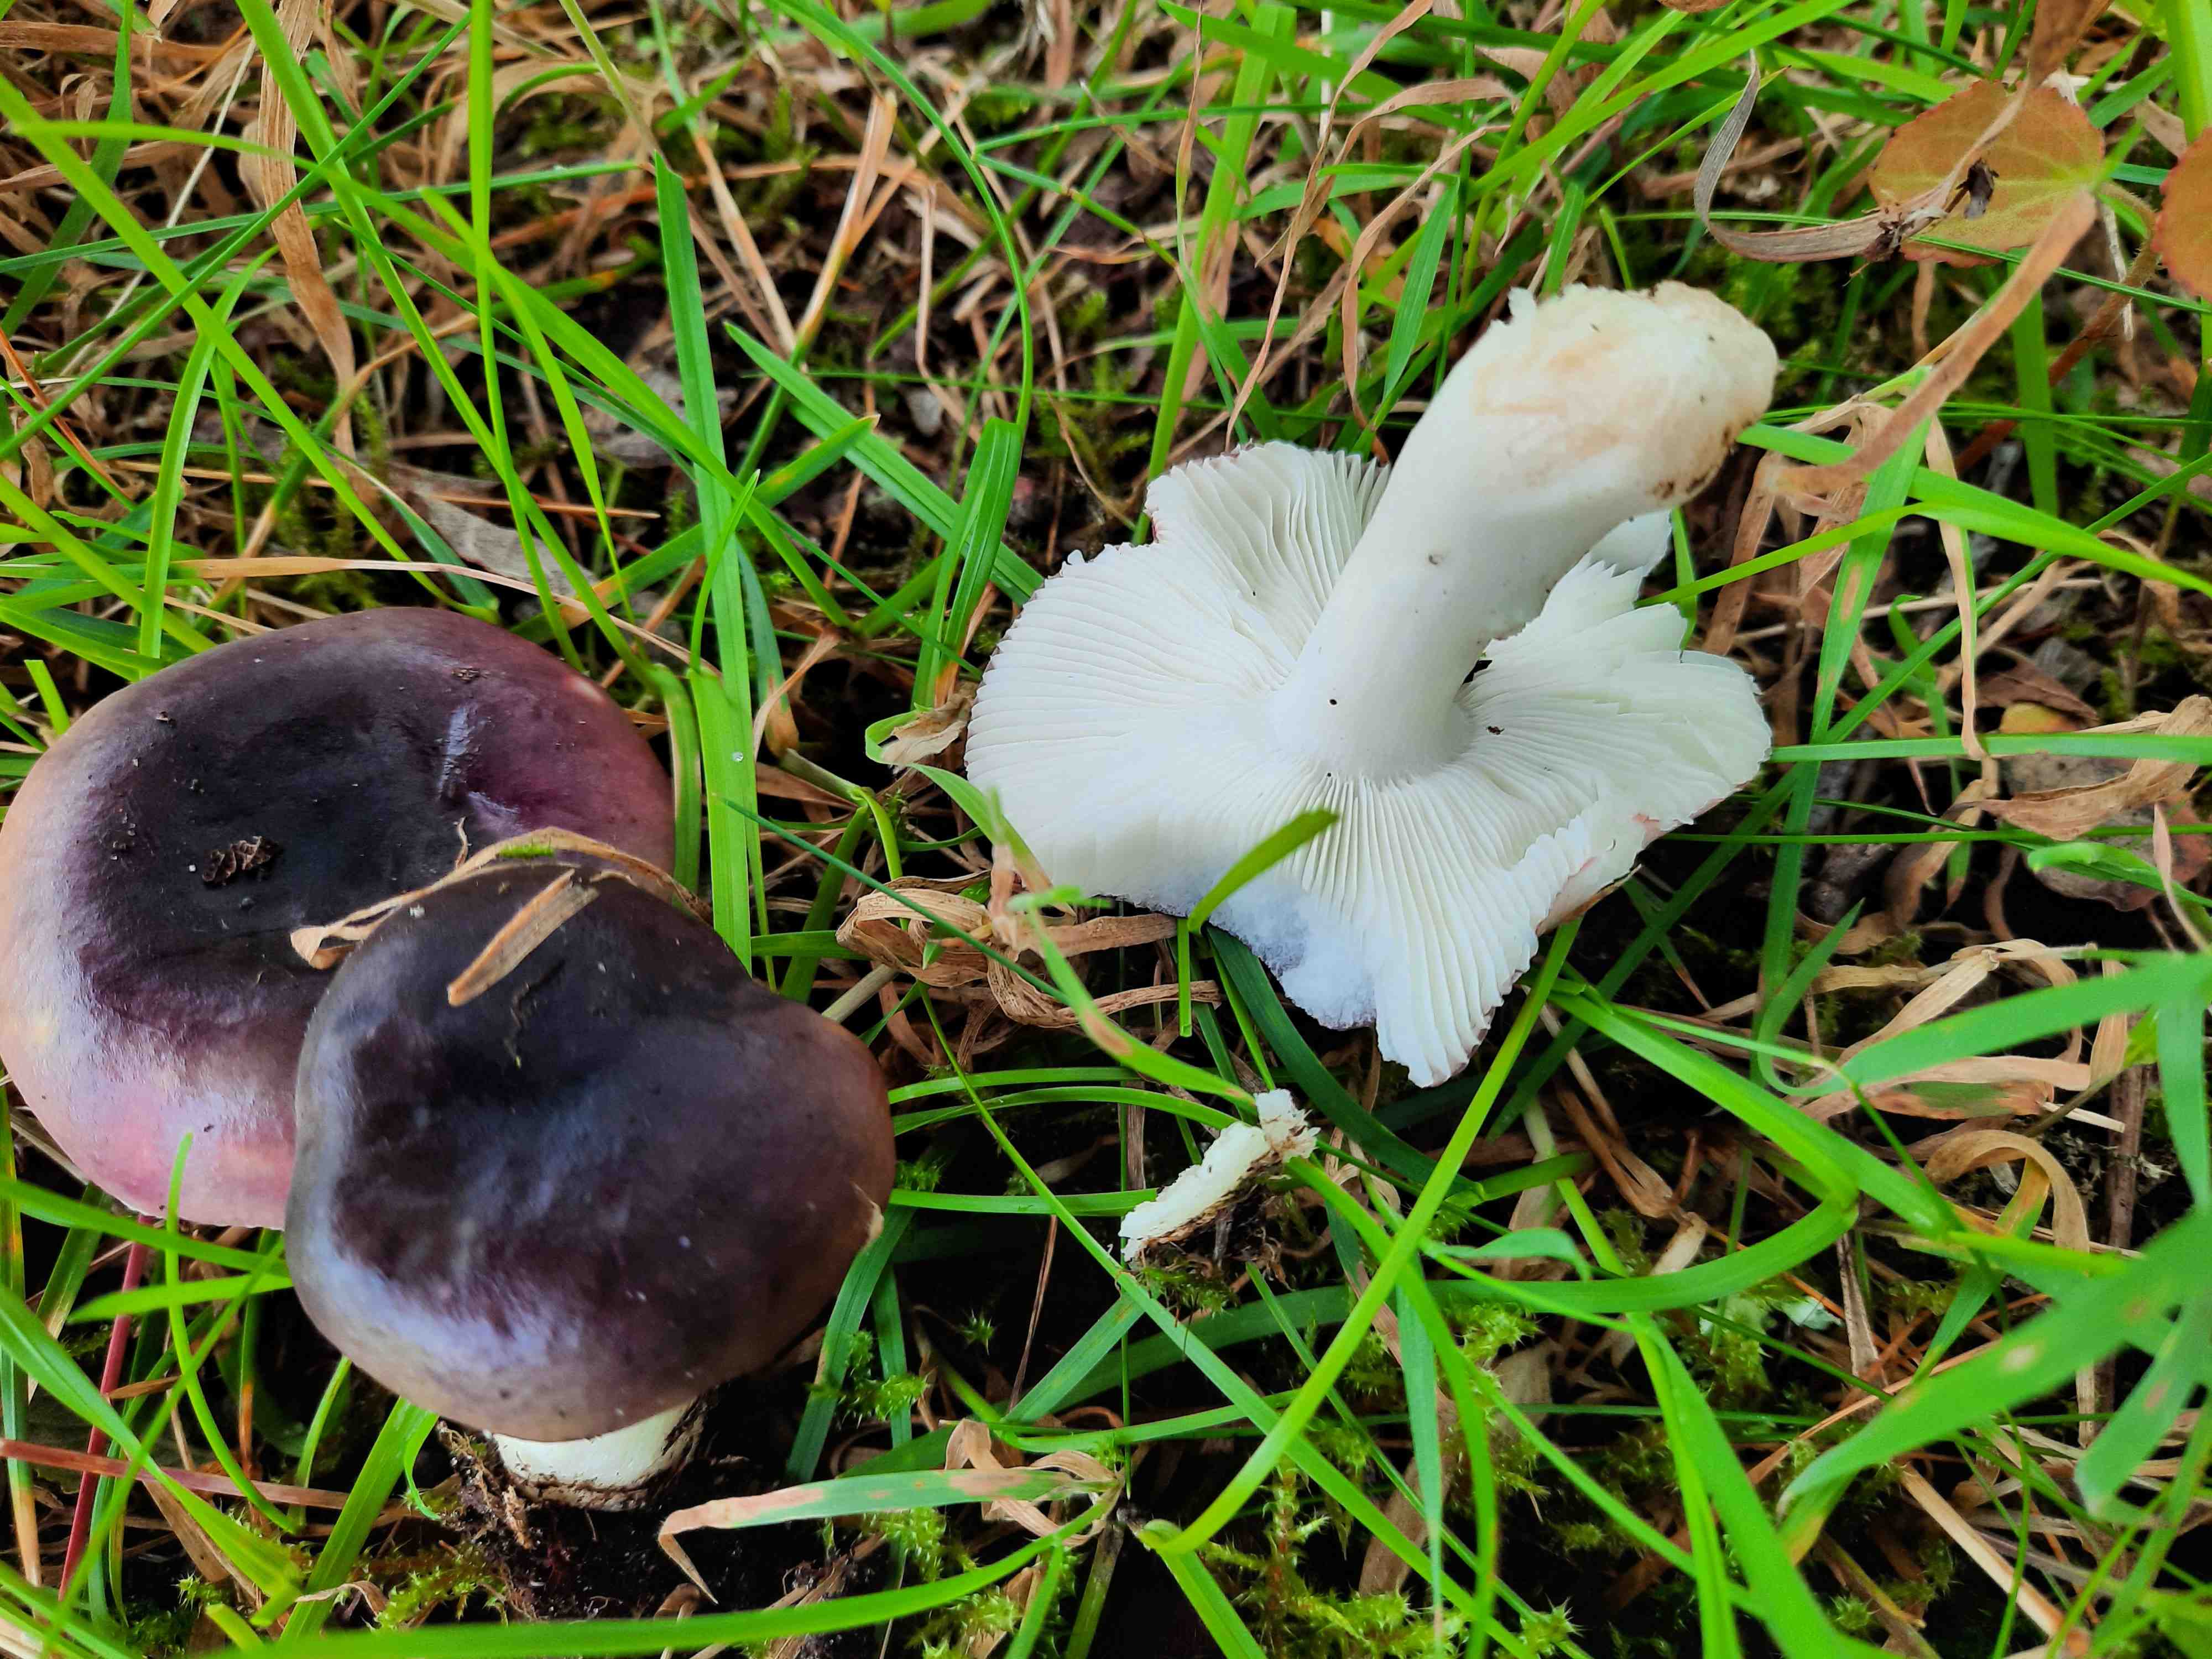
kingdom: Fungi
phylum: Basidiomycota
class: Agaricomycetes
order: Russulales
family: Russulaceae
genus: Russula
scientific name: Russula
